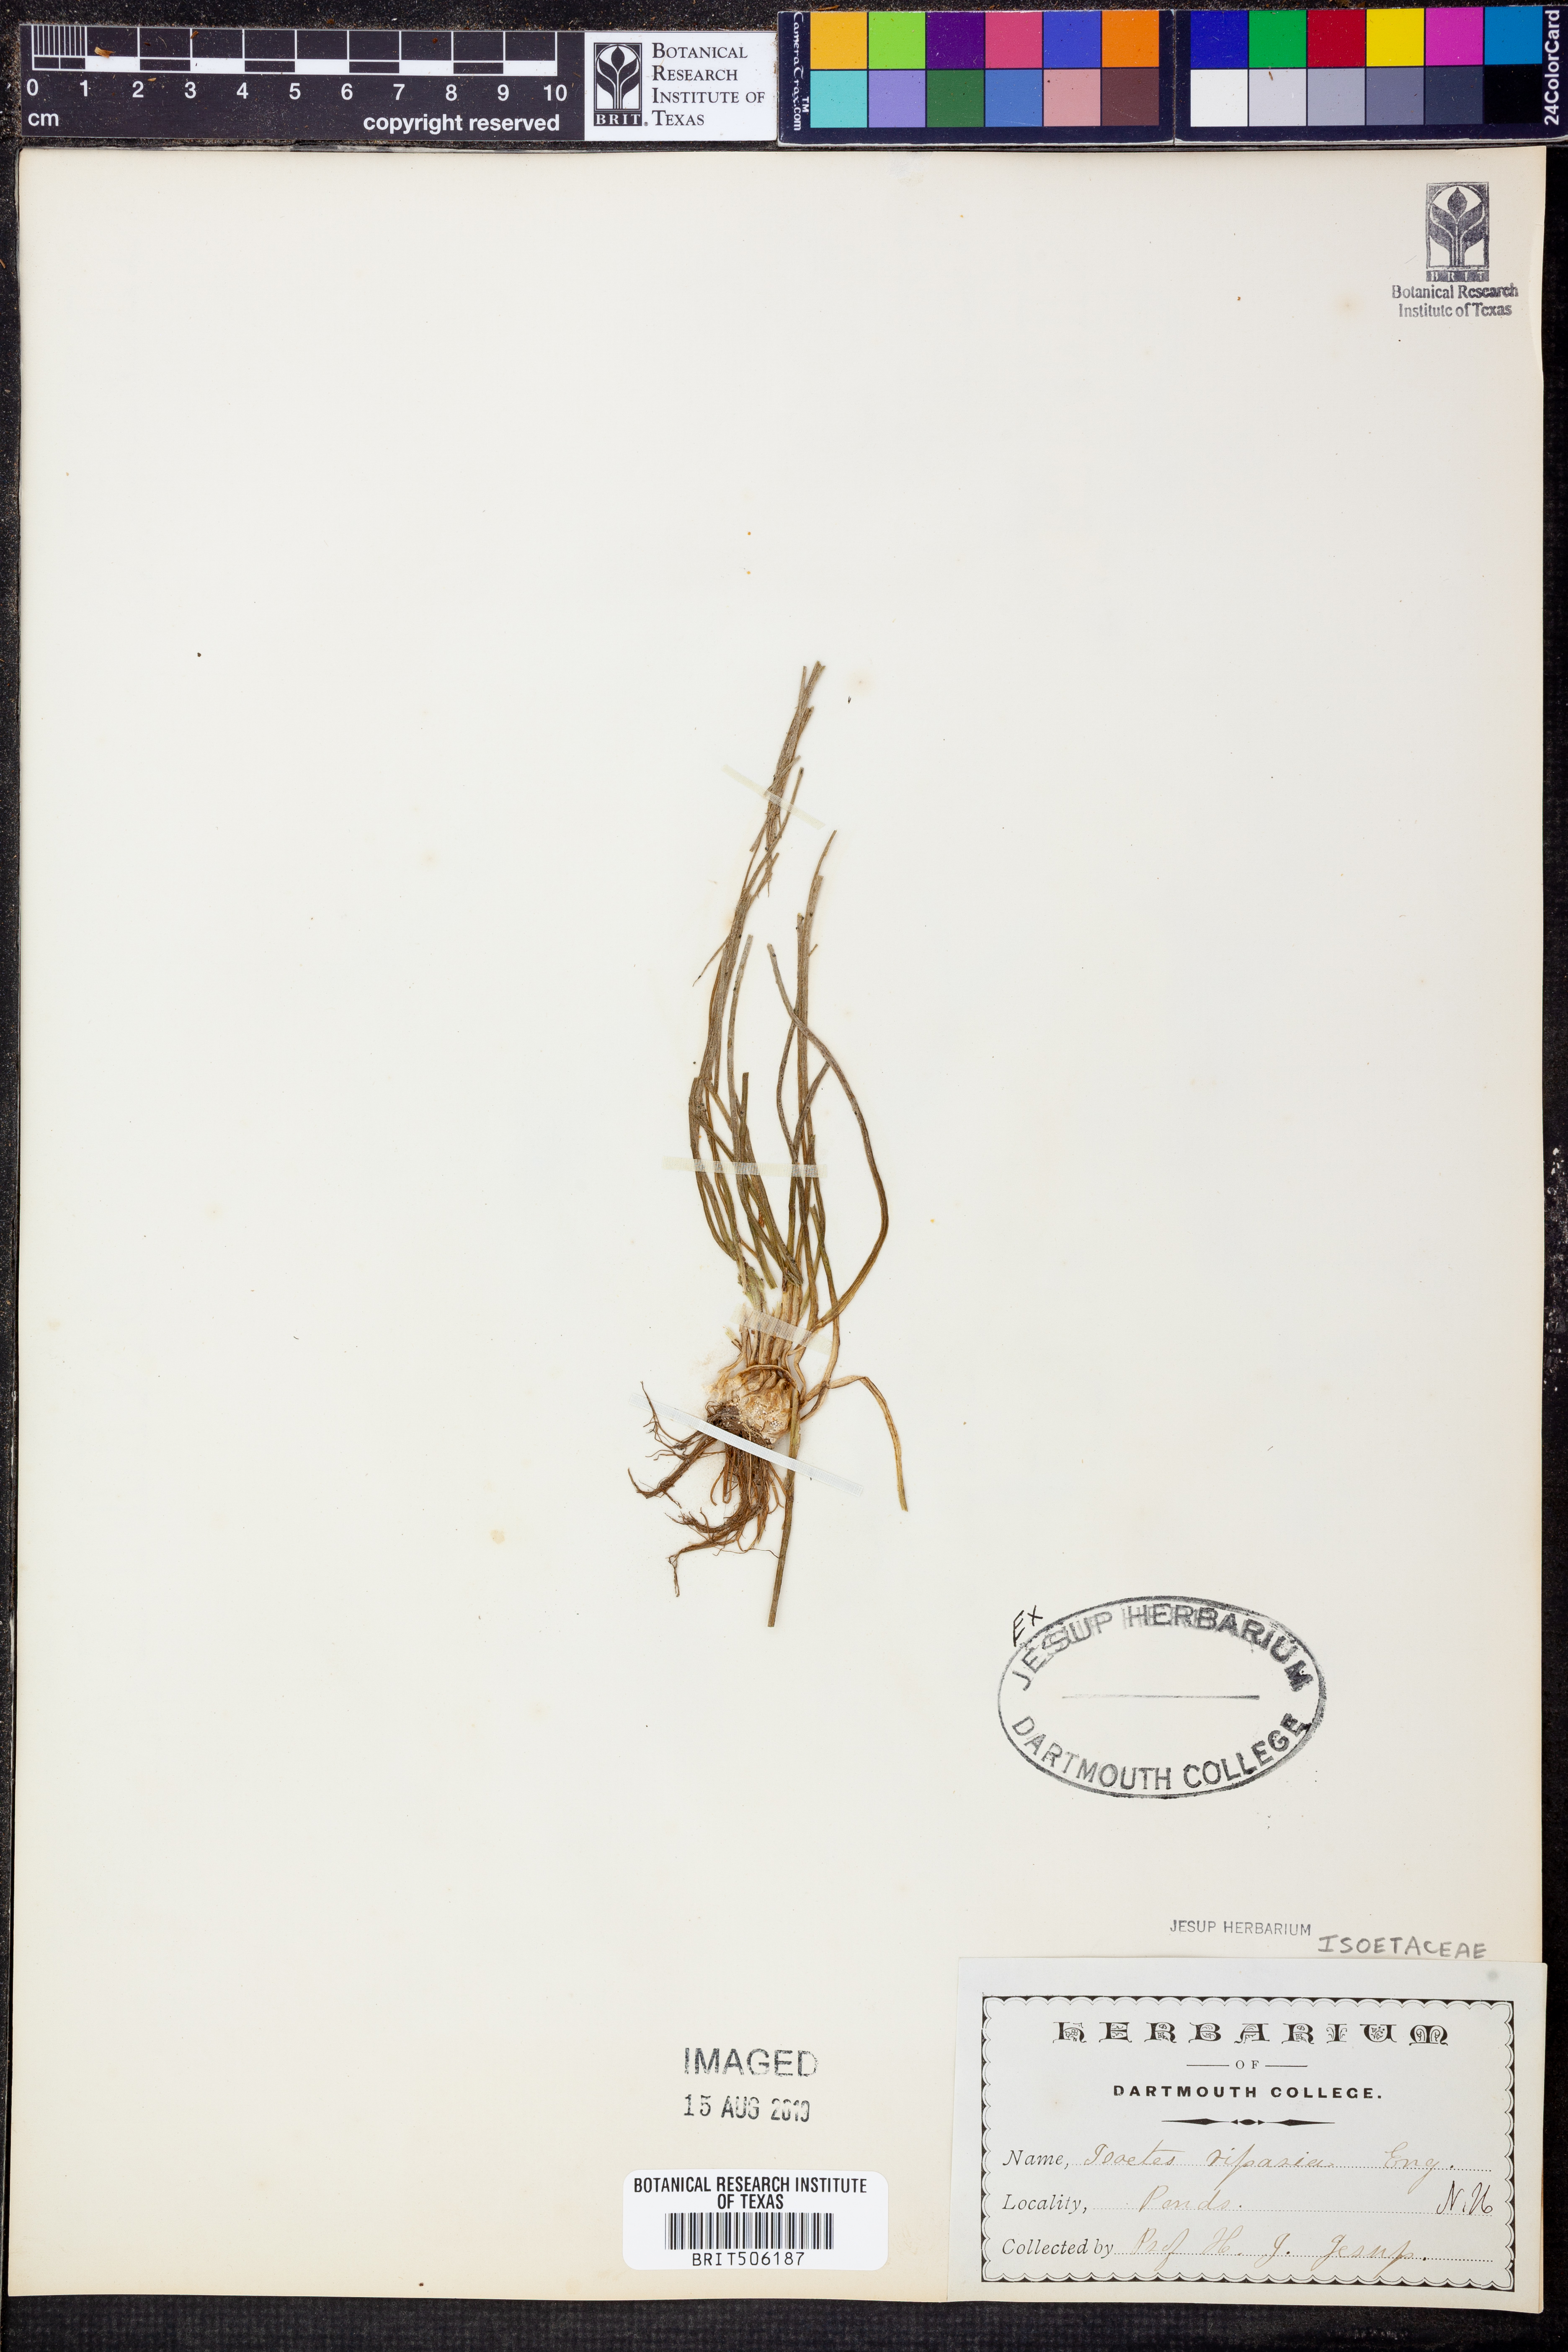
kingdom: Plantae
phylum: Tracheophyta
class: Lycopodiopsida
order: Isoetales
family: Isoetaceae
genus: Isoetes
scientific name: Isoetes riparia
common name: Riverbank quillwort
